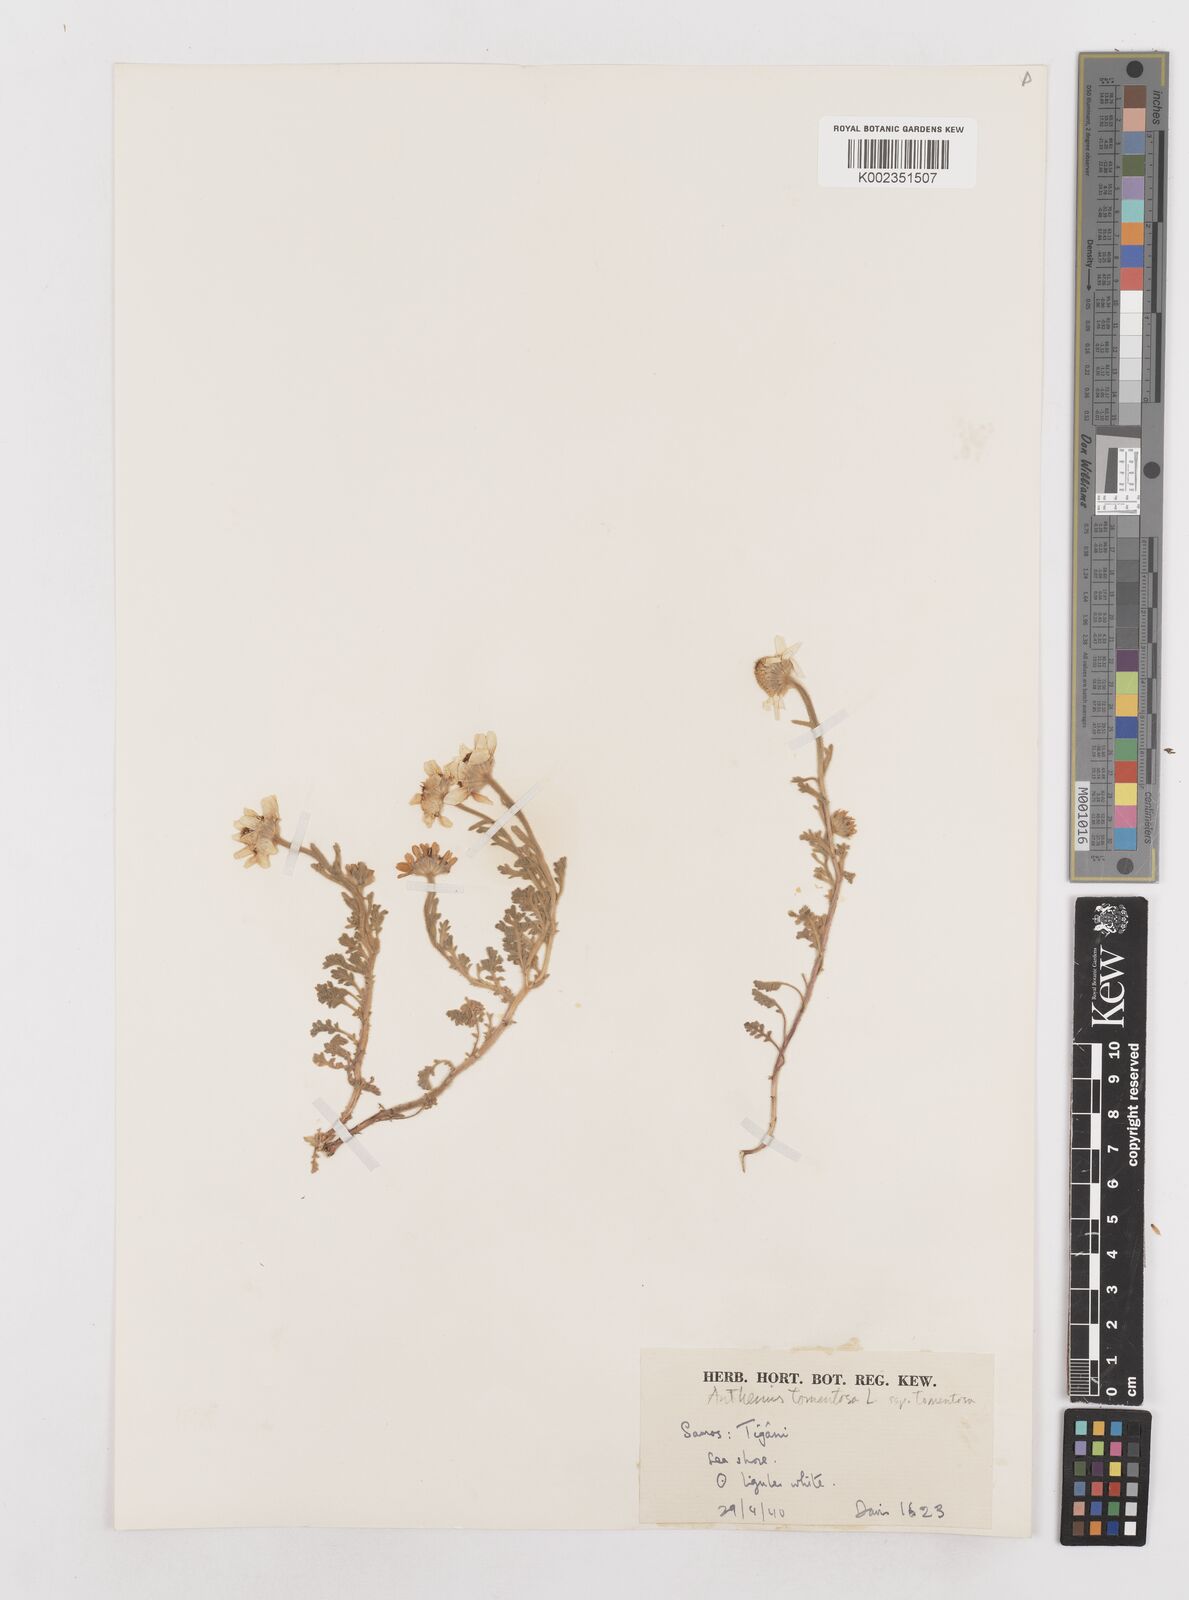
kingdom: Plantae
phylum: Tracheophyta
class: Magnoliopsida
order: Asterales
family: Asteraceae
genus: Anthemis
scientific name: Anthemis tomentosa
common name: Woolly chamomile
